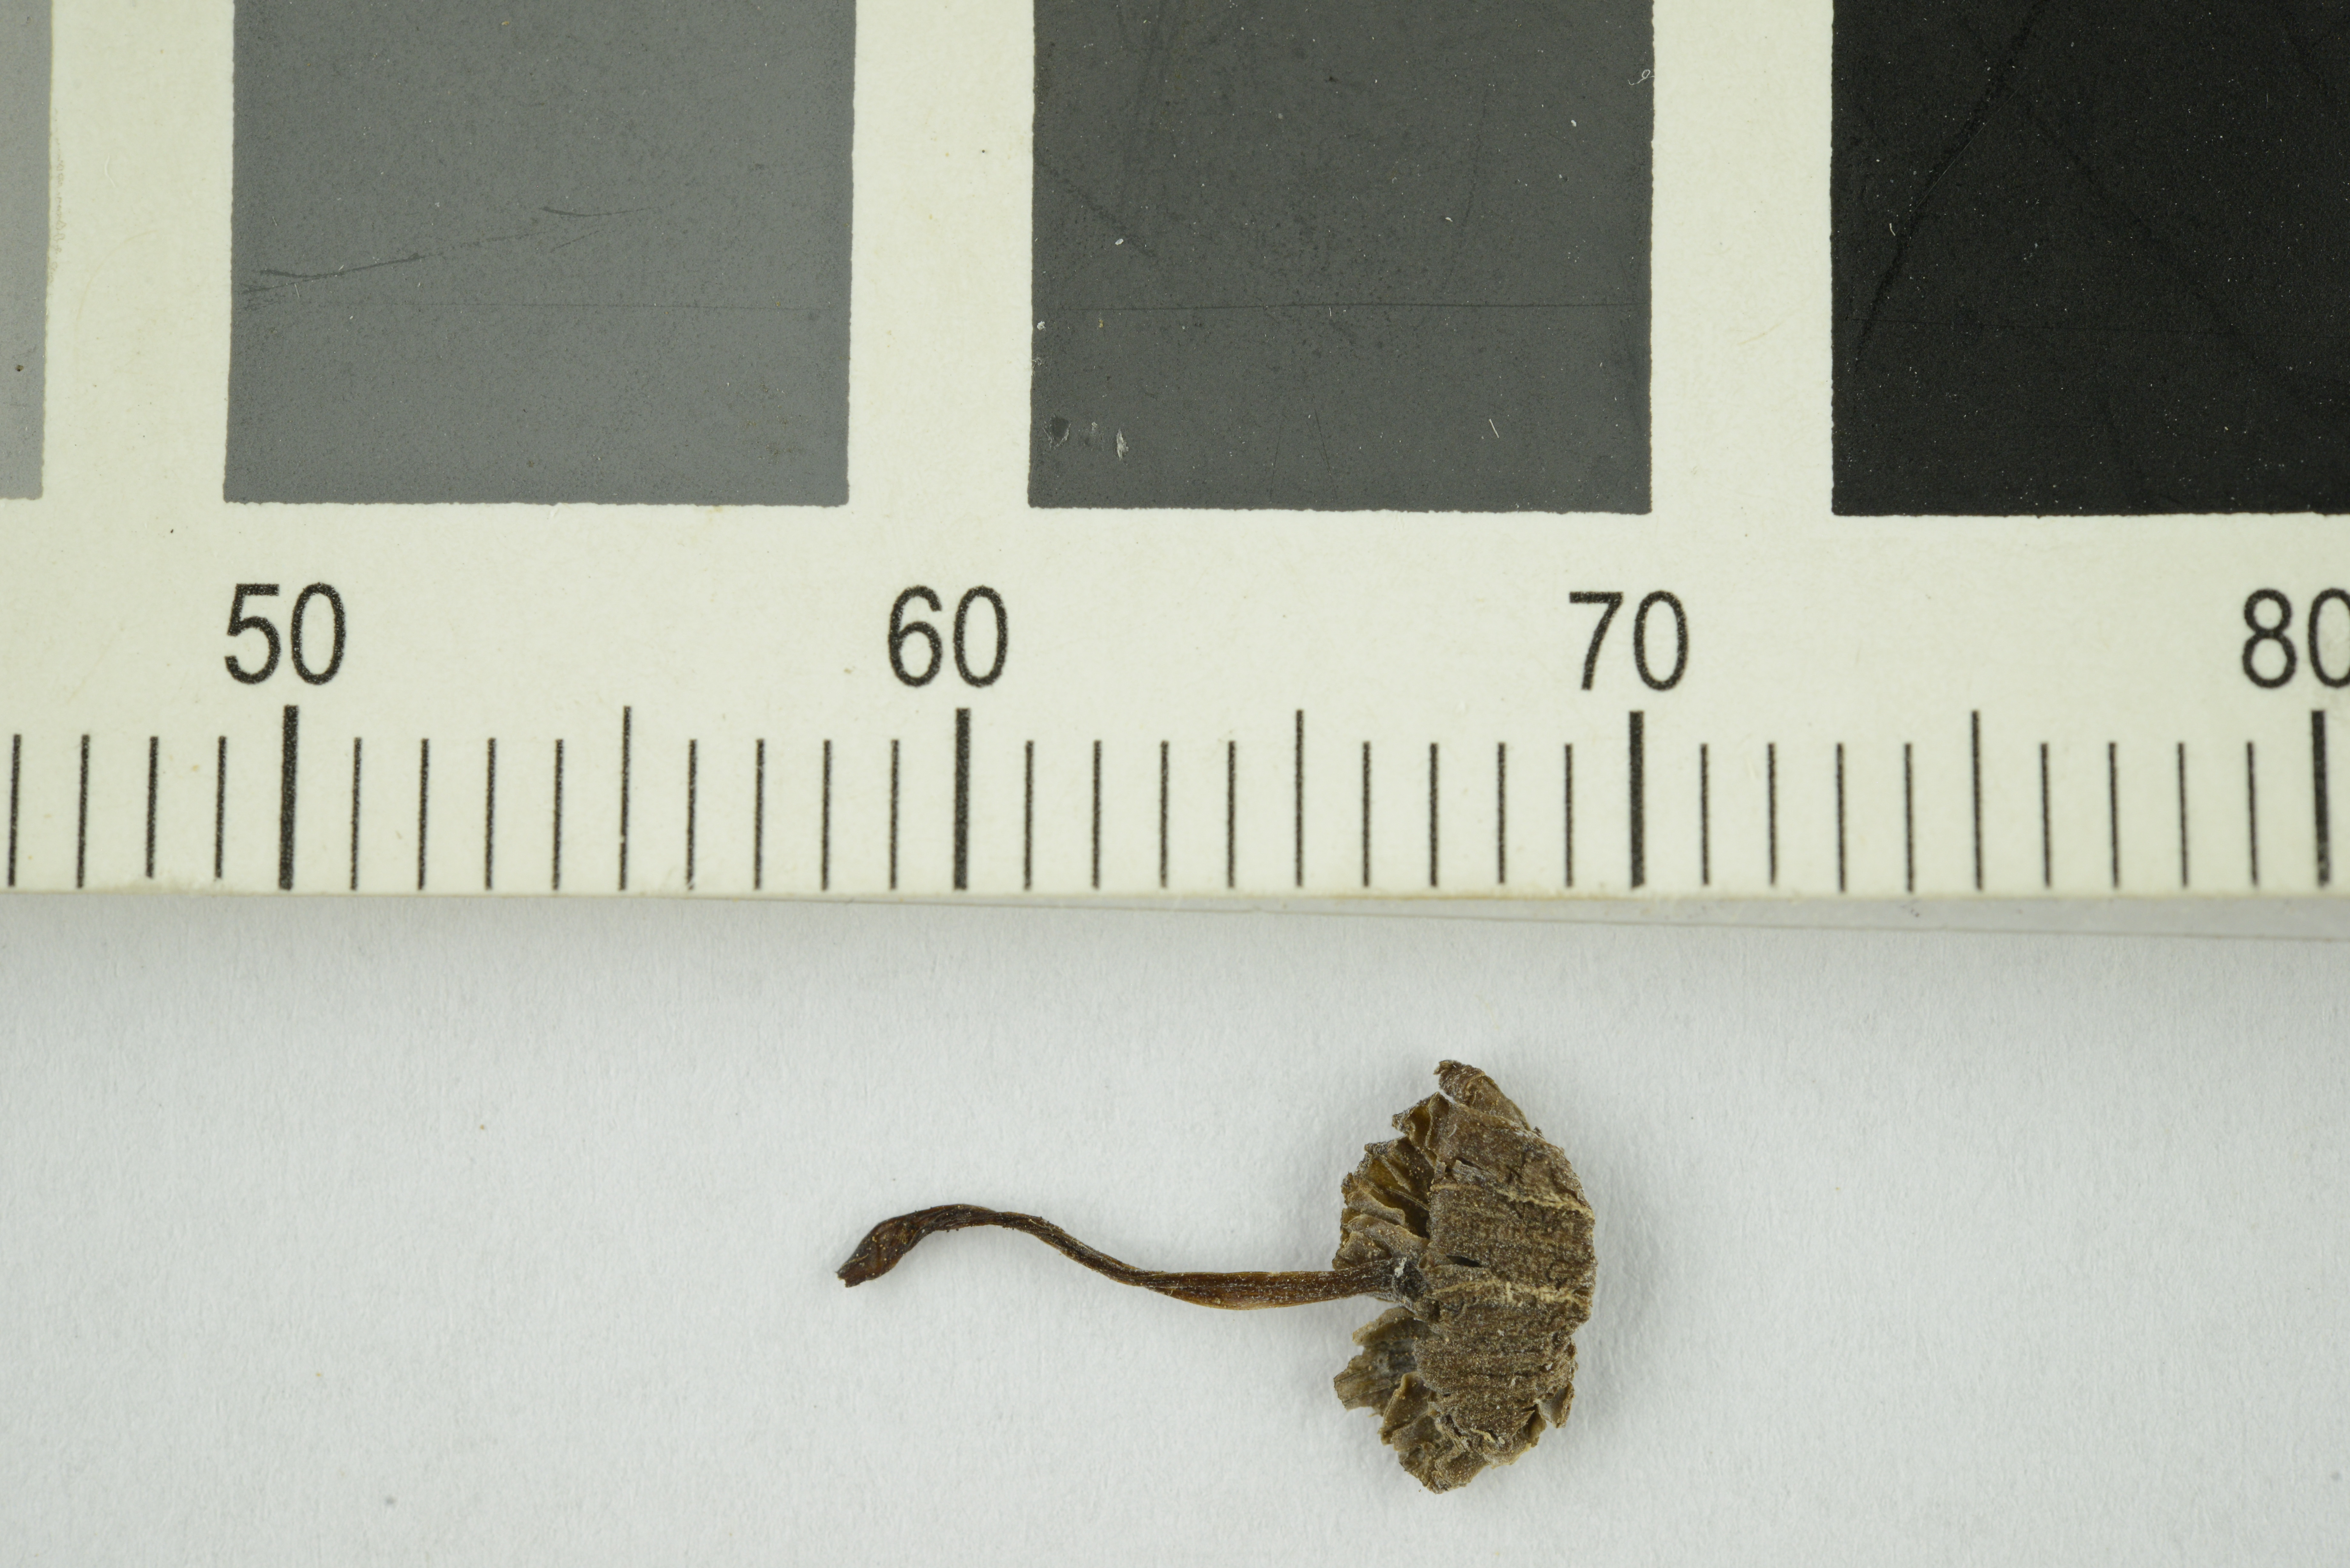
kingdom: Fungi
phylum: Basidiomycota
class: Agaricomycetes
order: Agaricales
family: Entolomataceae
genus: Entoloma
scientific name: Entoloma
